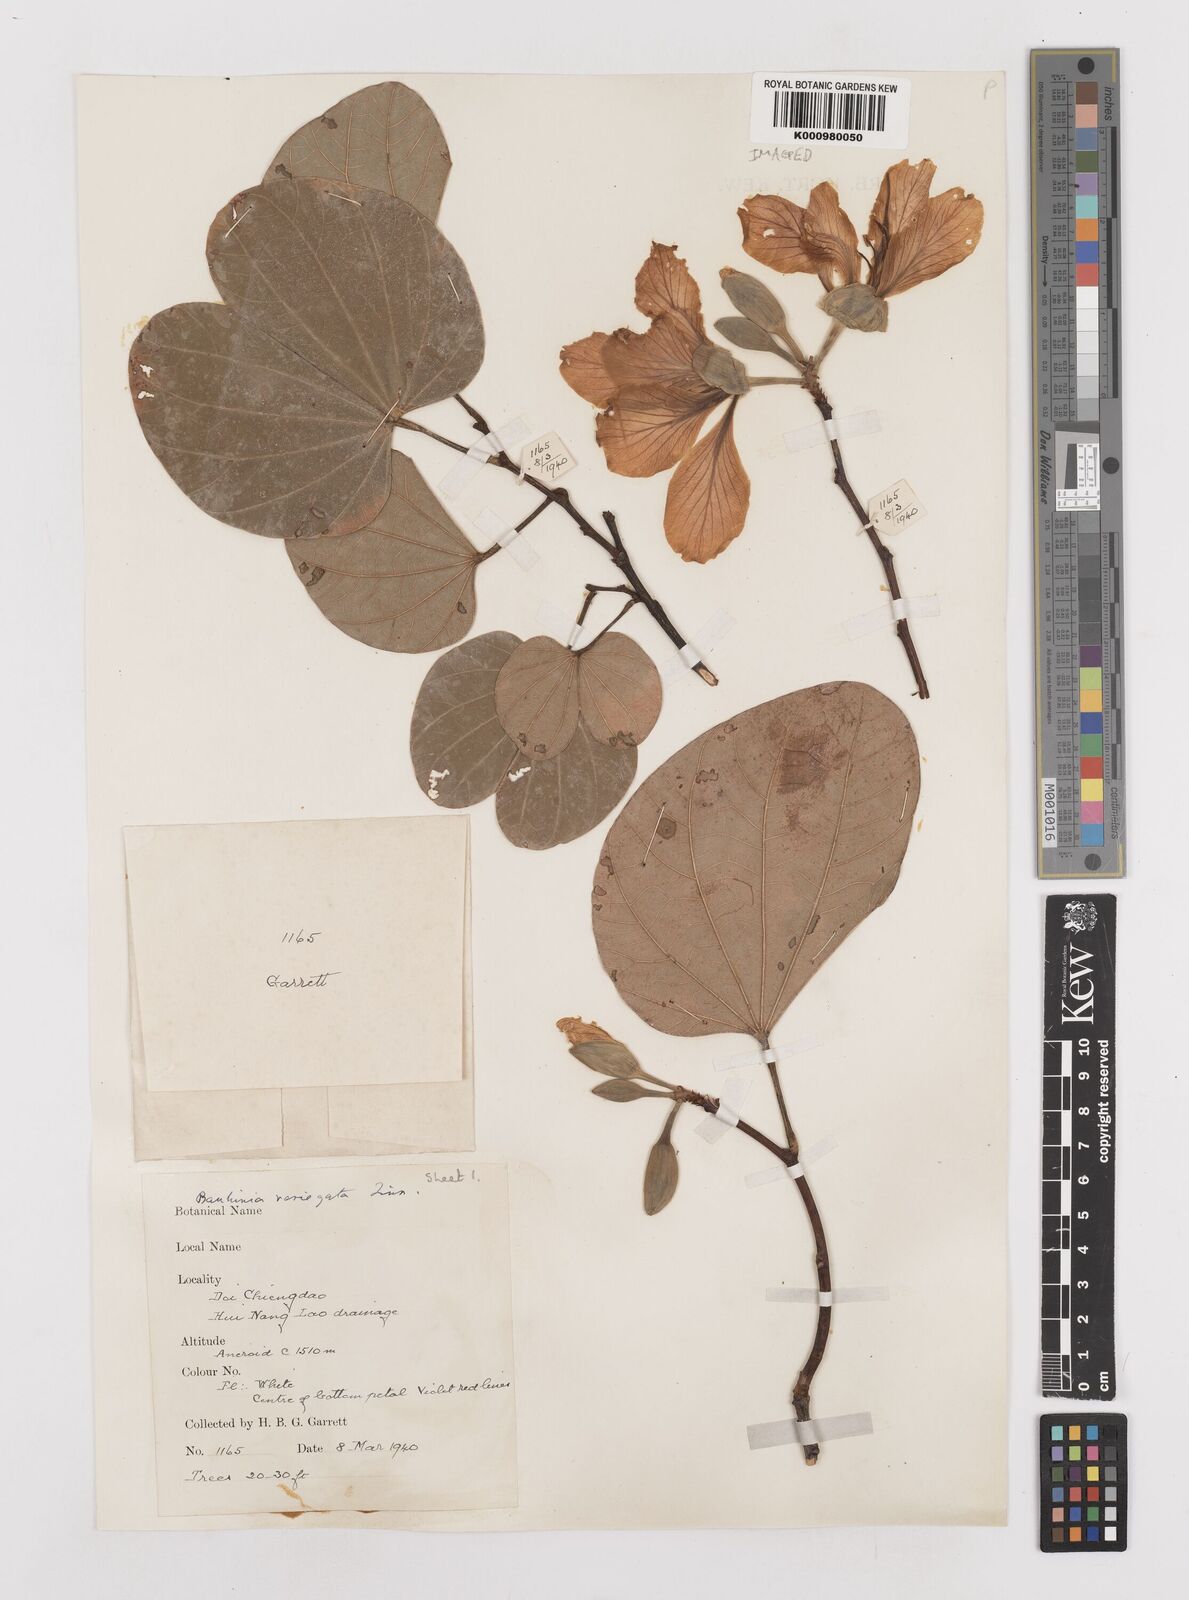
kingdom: Plantae
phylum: Tracheophyta
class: Magnoliopsida
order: Fabales
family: Fabaceae
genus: Bauhinia
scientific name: Bauhinia variegata
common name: Mountain ebony
